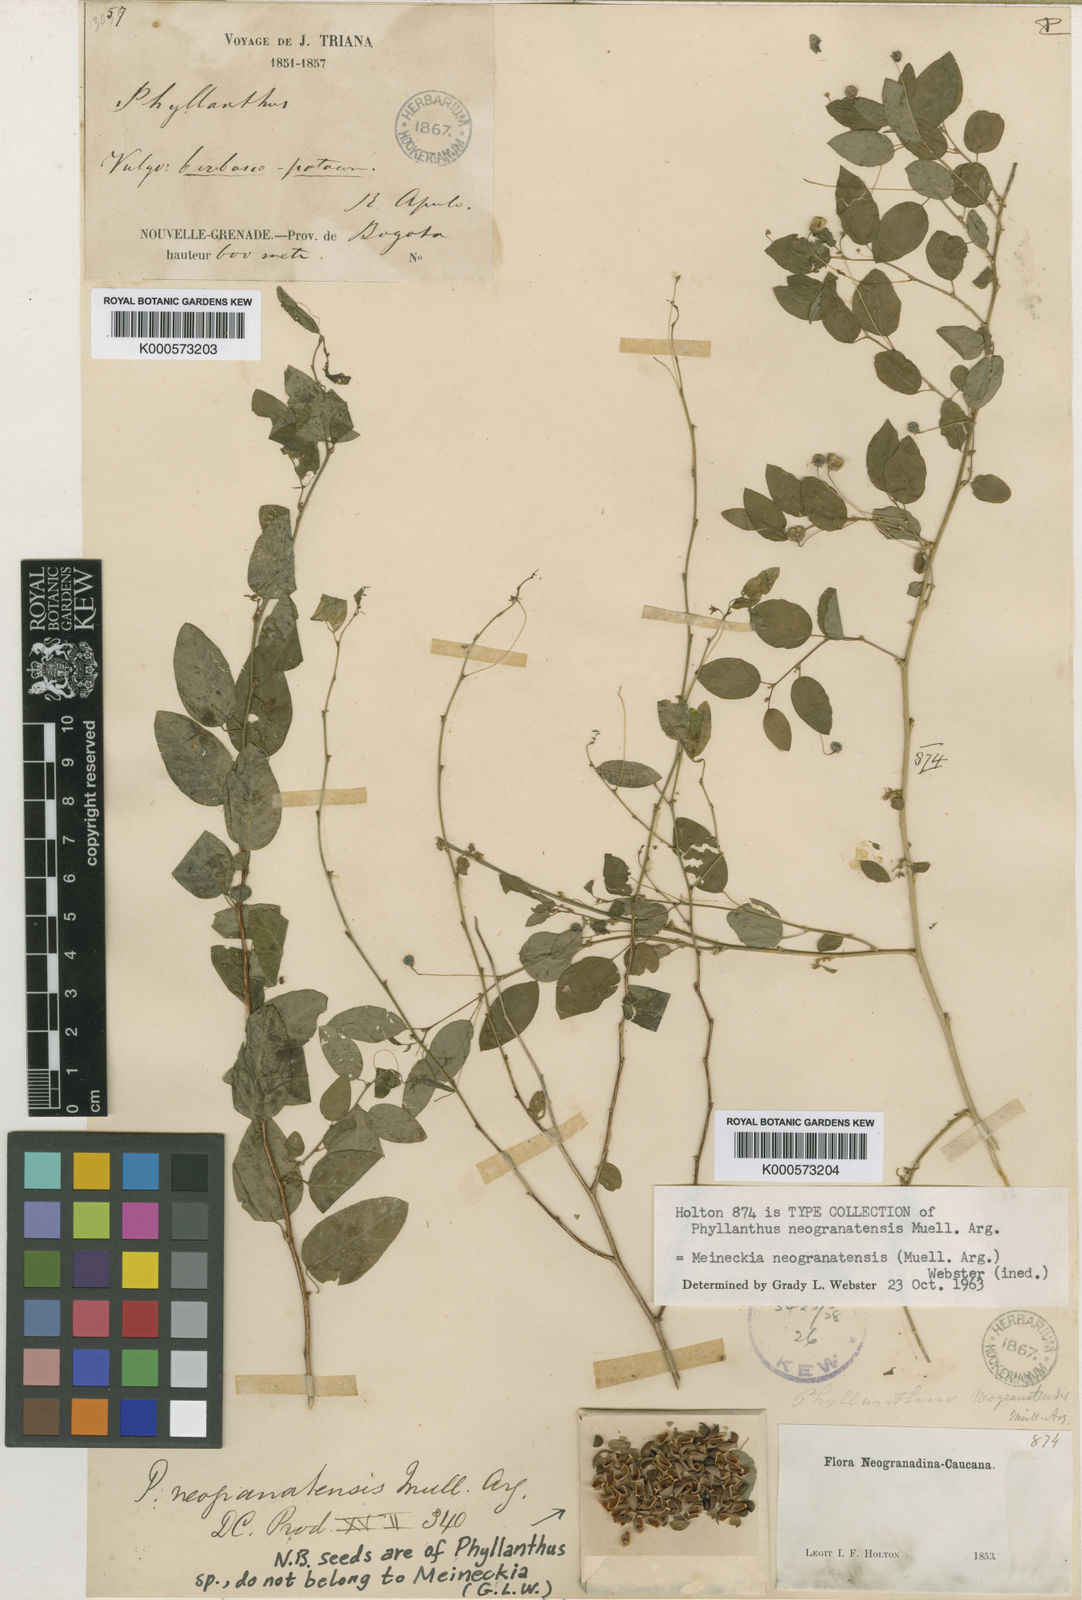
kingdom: Plantae
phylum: Tracheophyta
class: Magnoliopsida
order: Malpighiales
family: Phyllanthaceae
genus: Phyllanthus
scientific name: Phyllanthus
